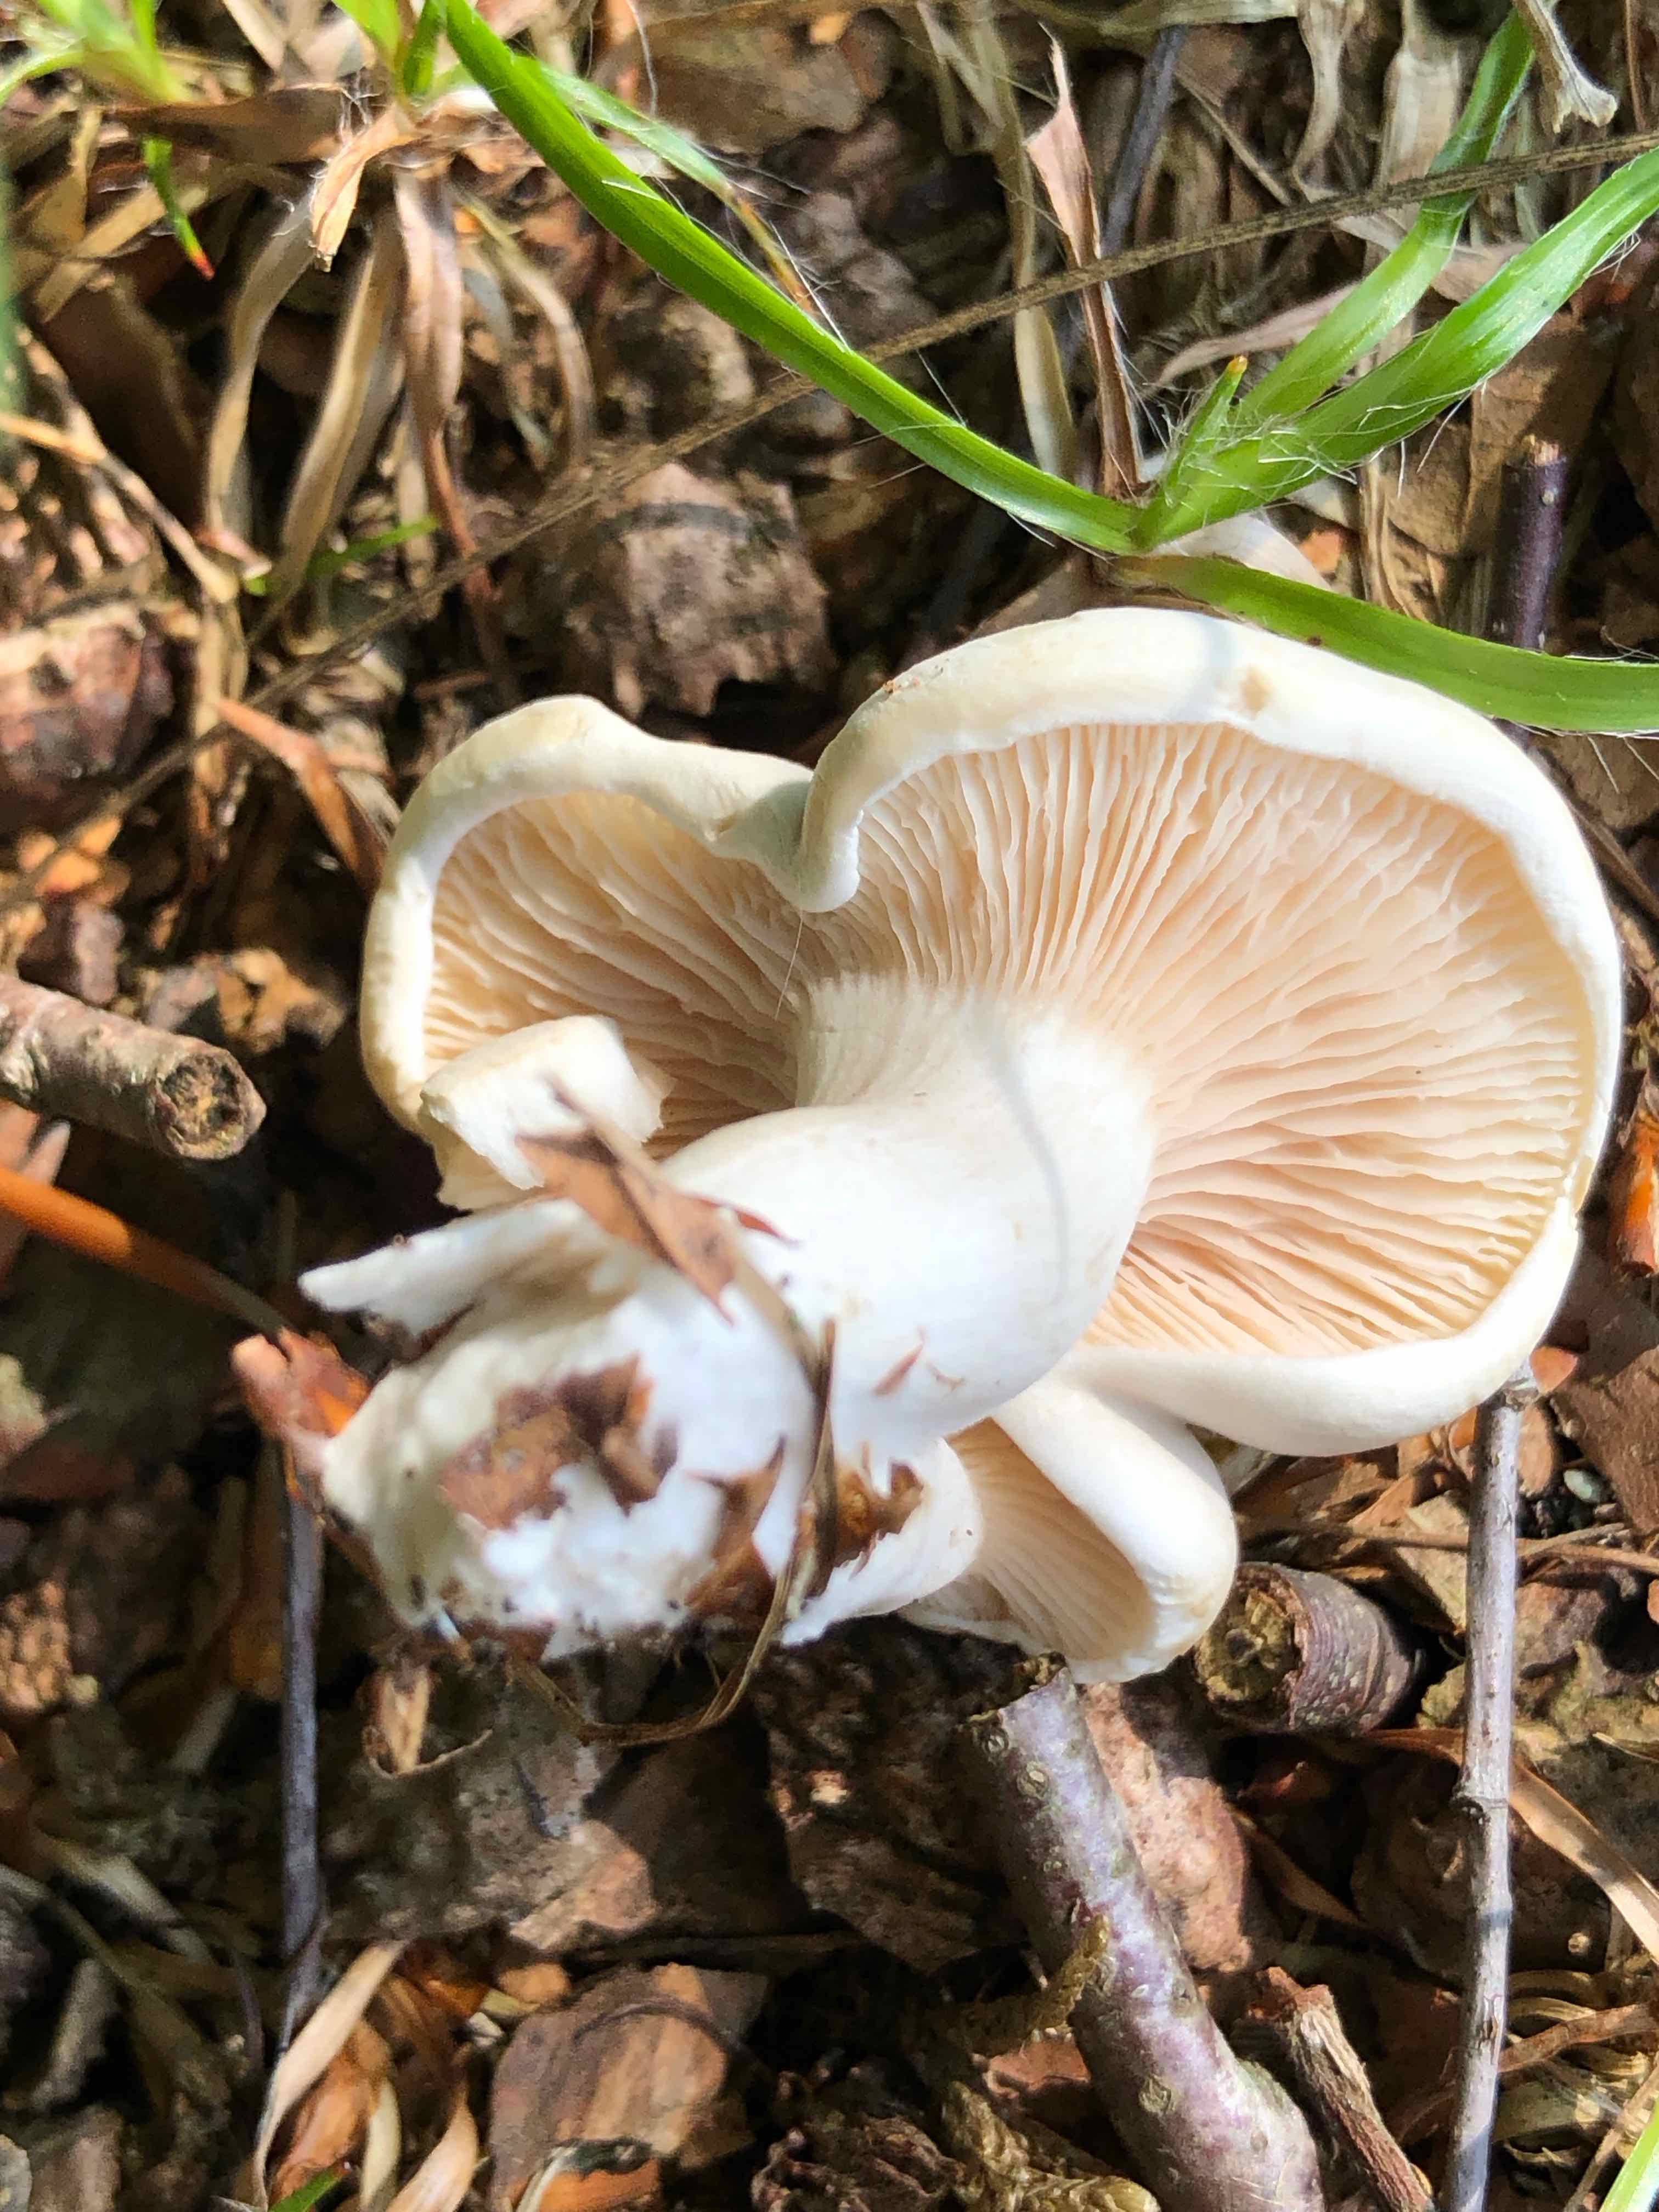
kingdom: Fungi
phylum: Basidiomycota
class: Agaricomycetes
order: Agaricales
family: Entolomataceae
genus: Clitopilus
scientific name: Clitopilus prunulus
